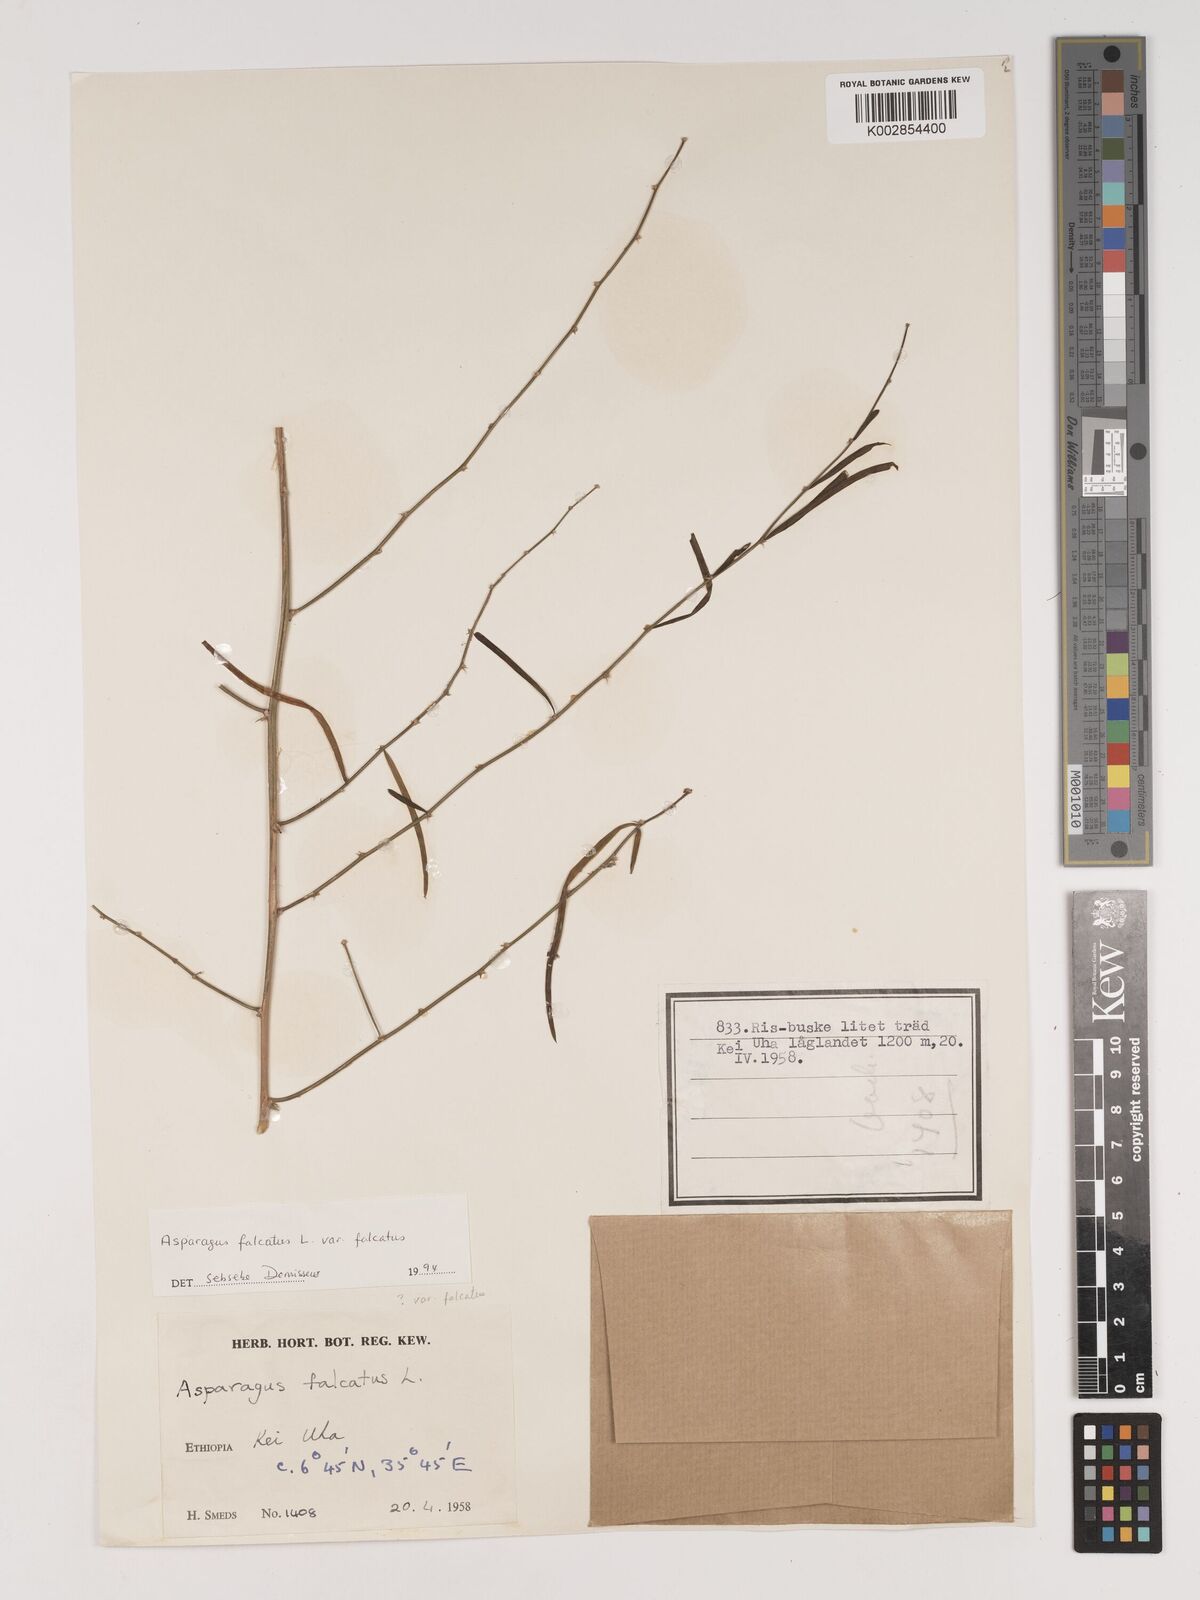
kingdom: Plantae
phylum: Tracheophyta
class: Liliopsida
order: Asparagales
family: Asparagaceae
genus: Asparagus
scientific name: Asparagus falcatus
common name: Asparagus
